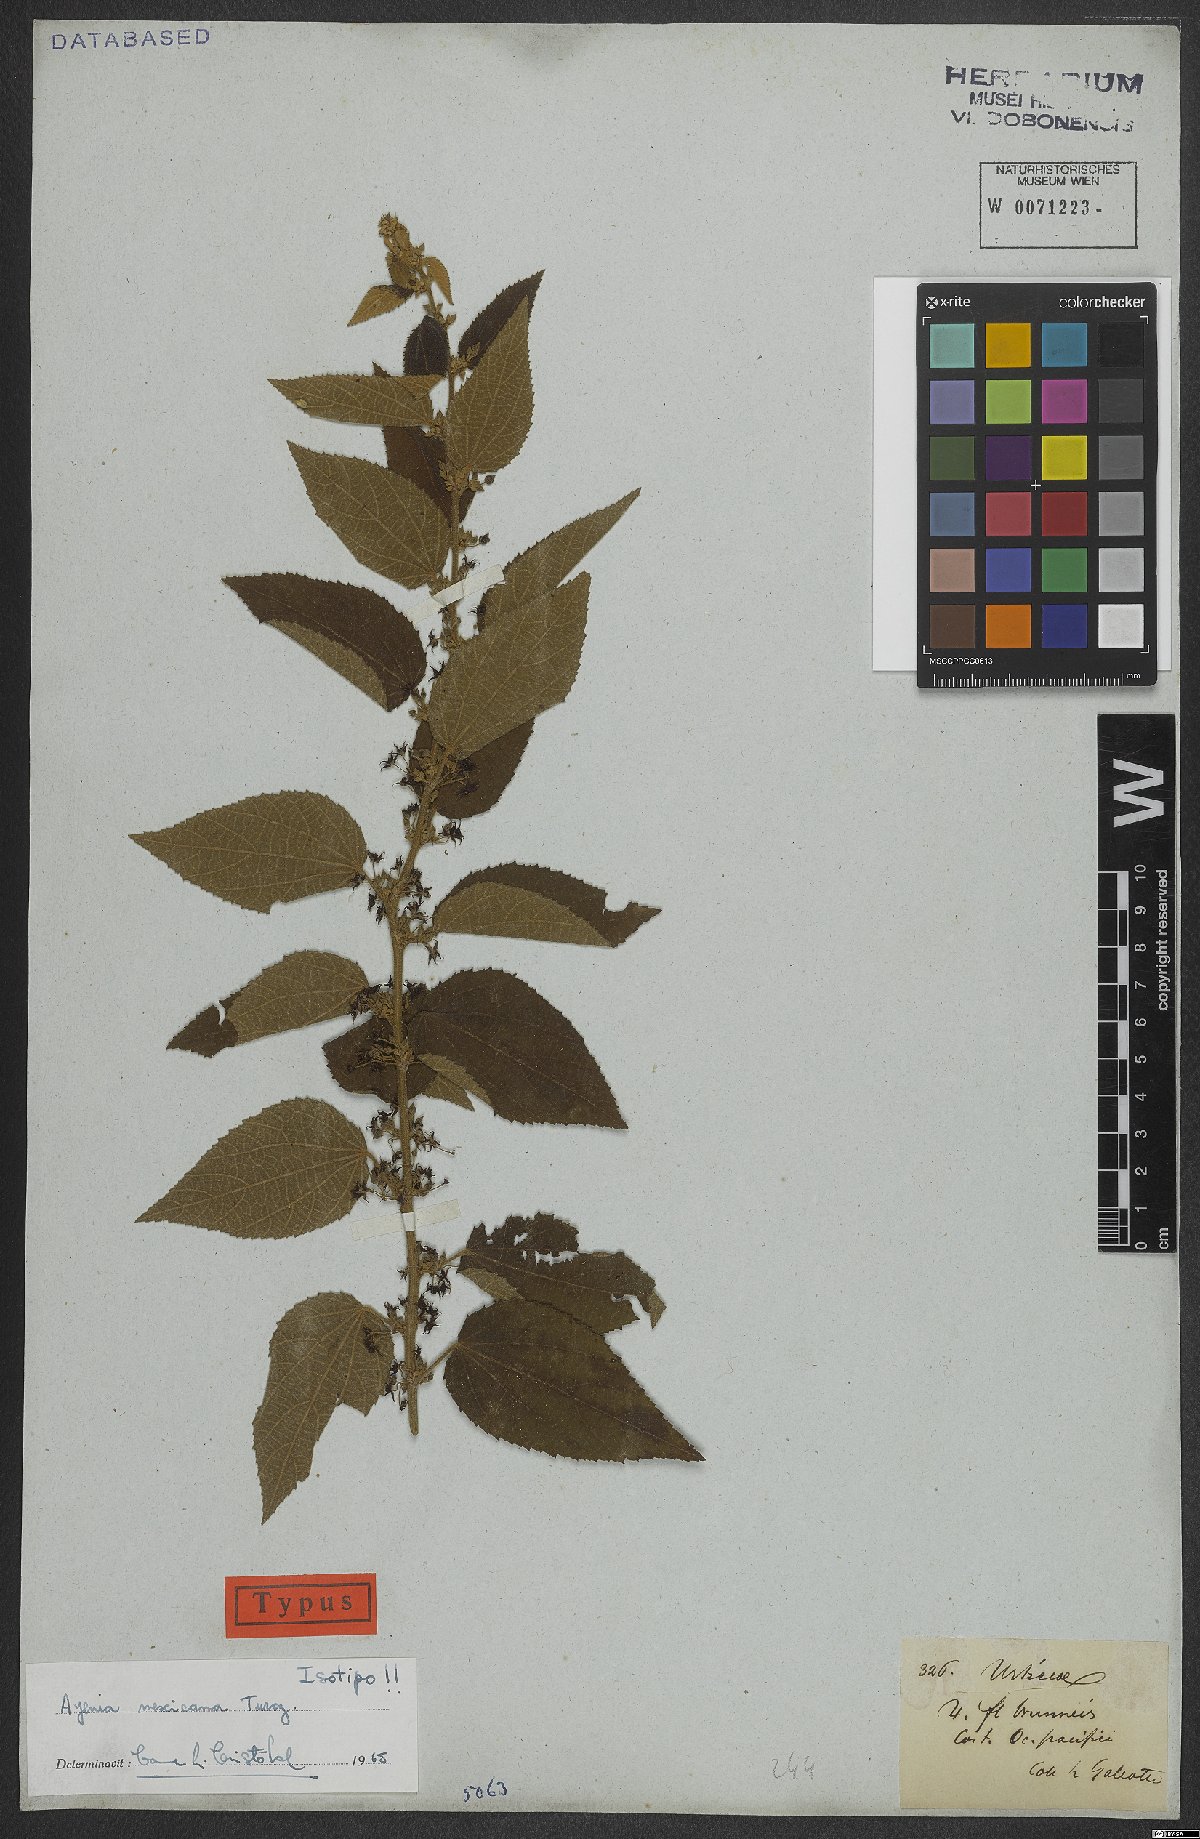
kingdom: Plantae
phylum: Tracheophyta
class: Magnoliopsida
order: Malvales
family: Malvaceae
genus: Ayenia
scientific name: Ayenia sidifolia
